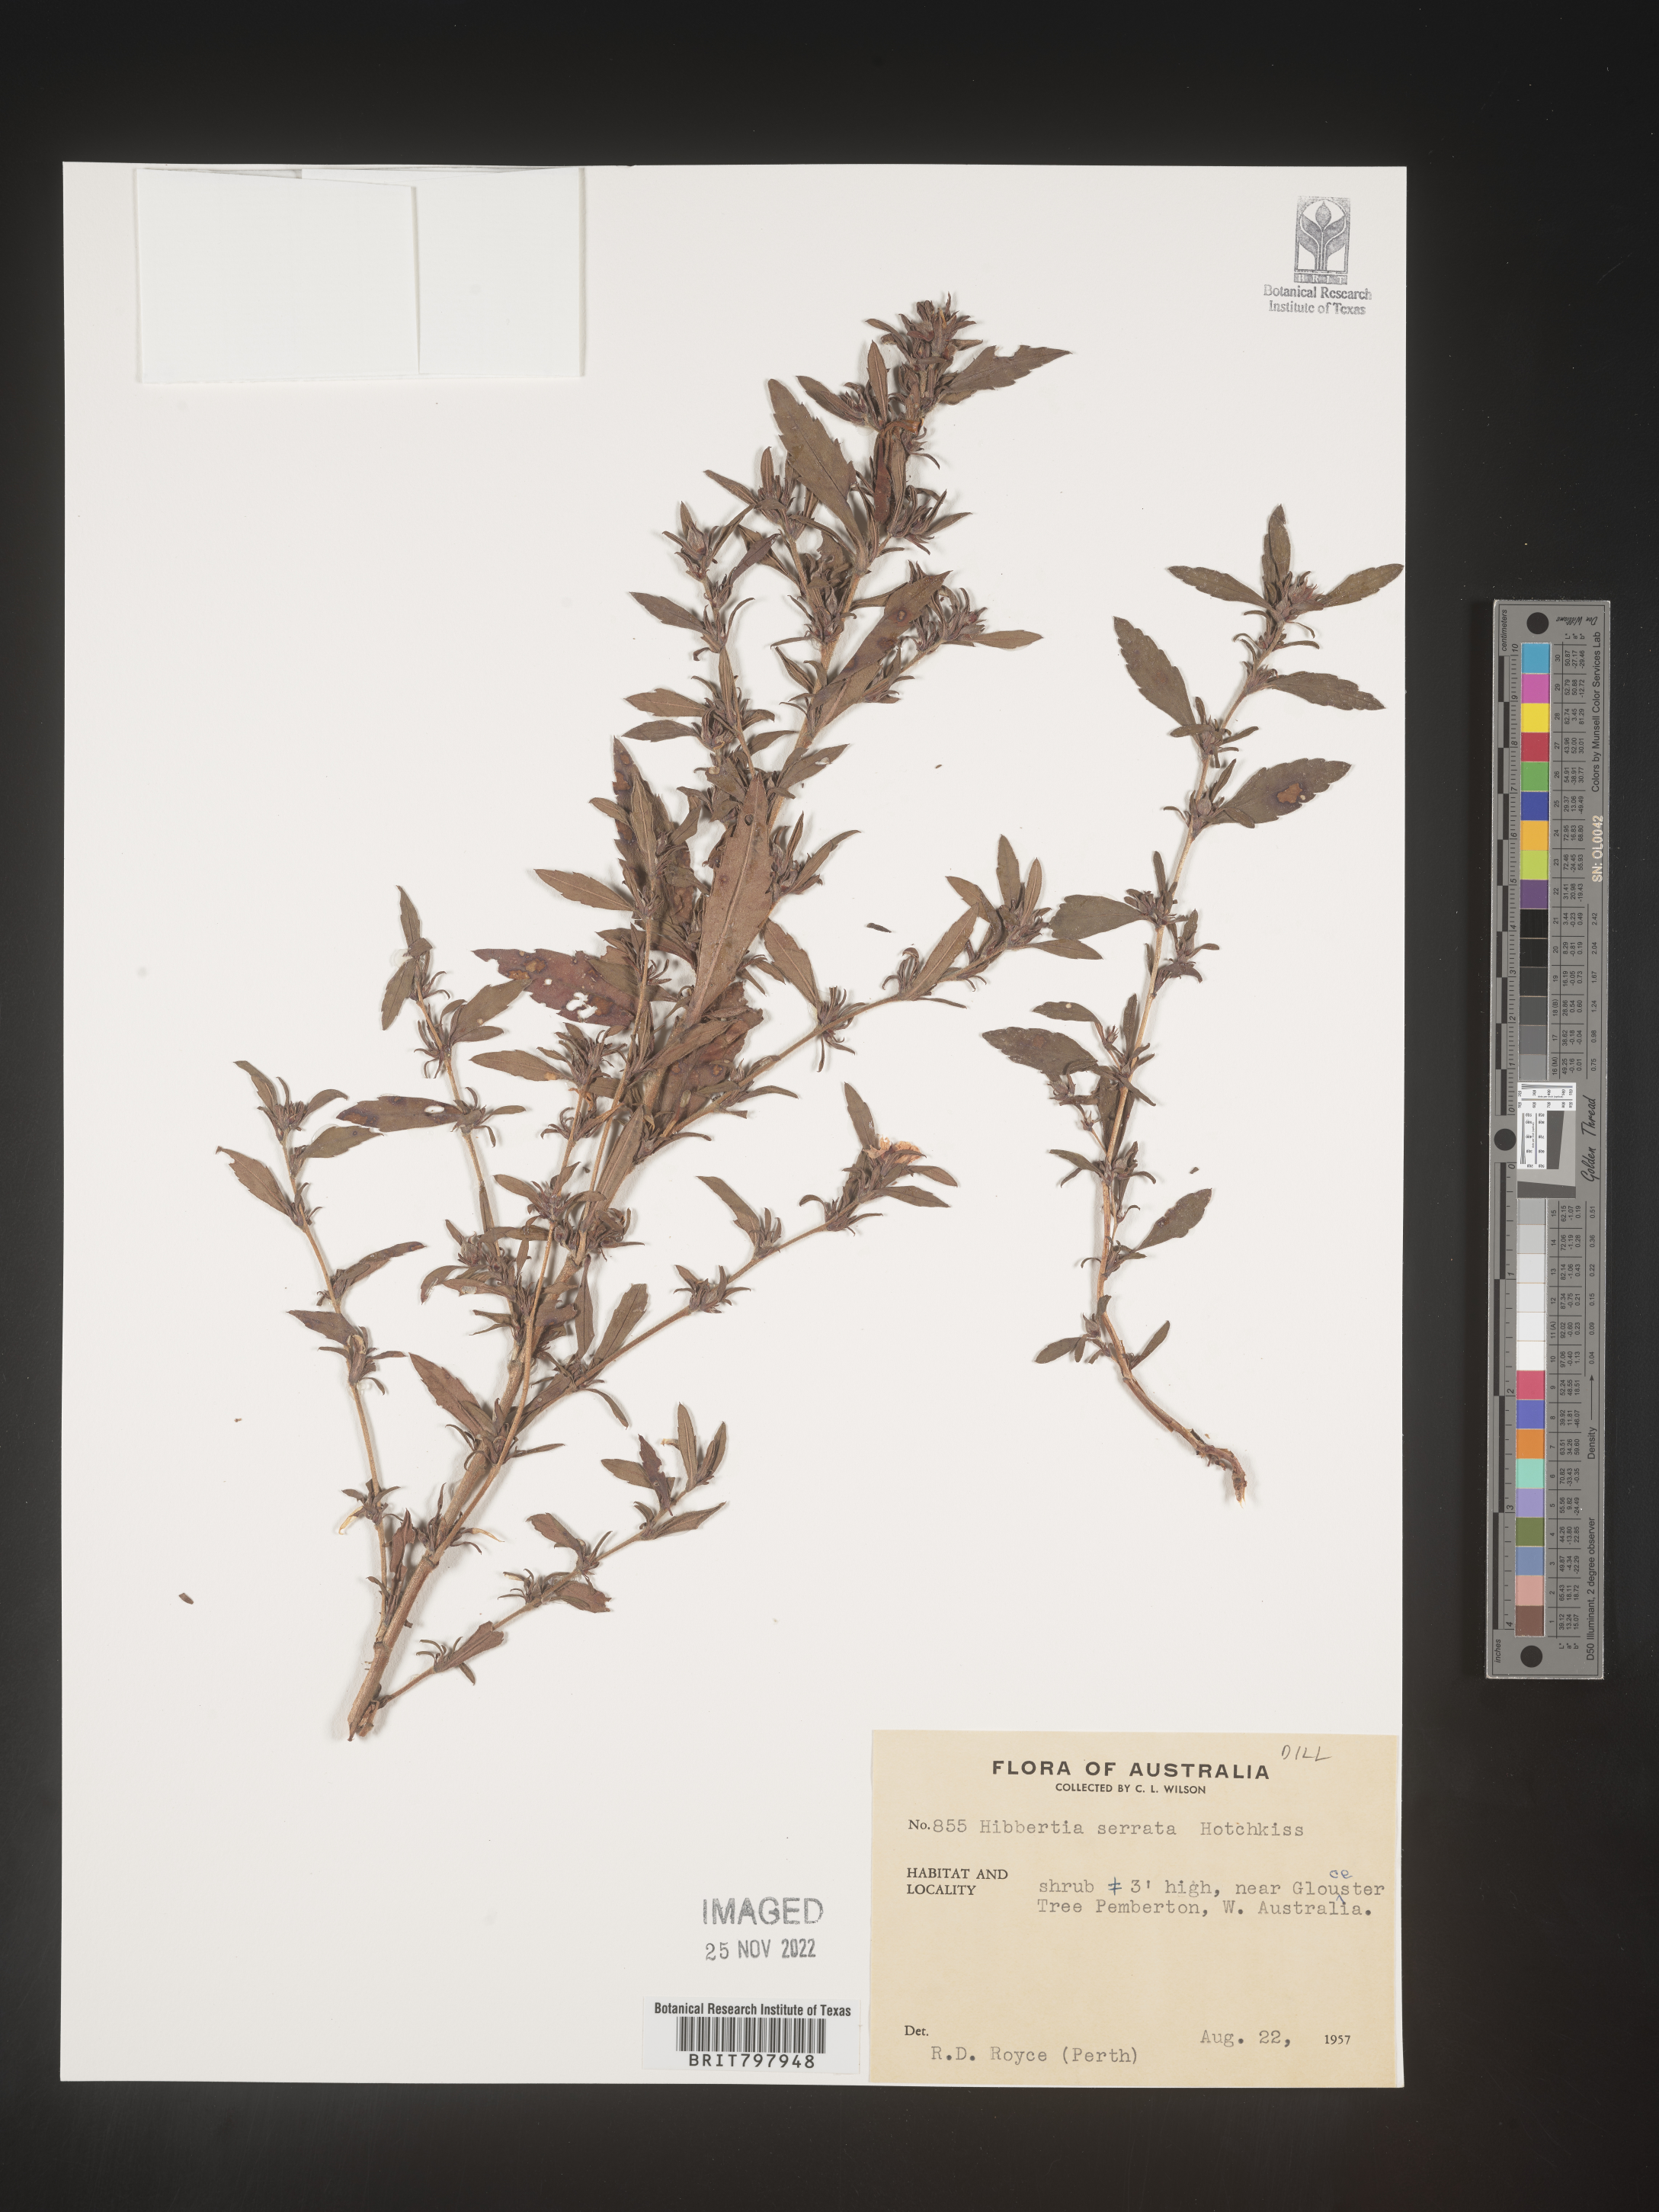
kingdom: Plantae
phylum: Tracheophyta
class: Magnoliopsida
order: Dilleniales
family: Dilleniaceae
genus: Hibbertia
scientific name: Hibbertia
